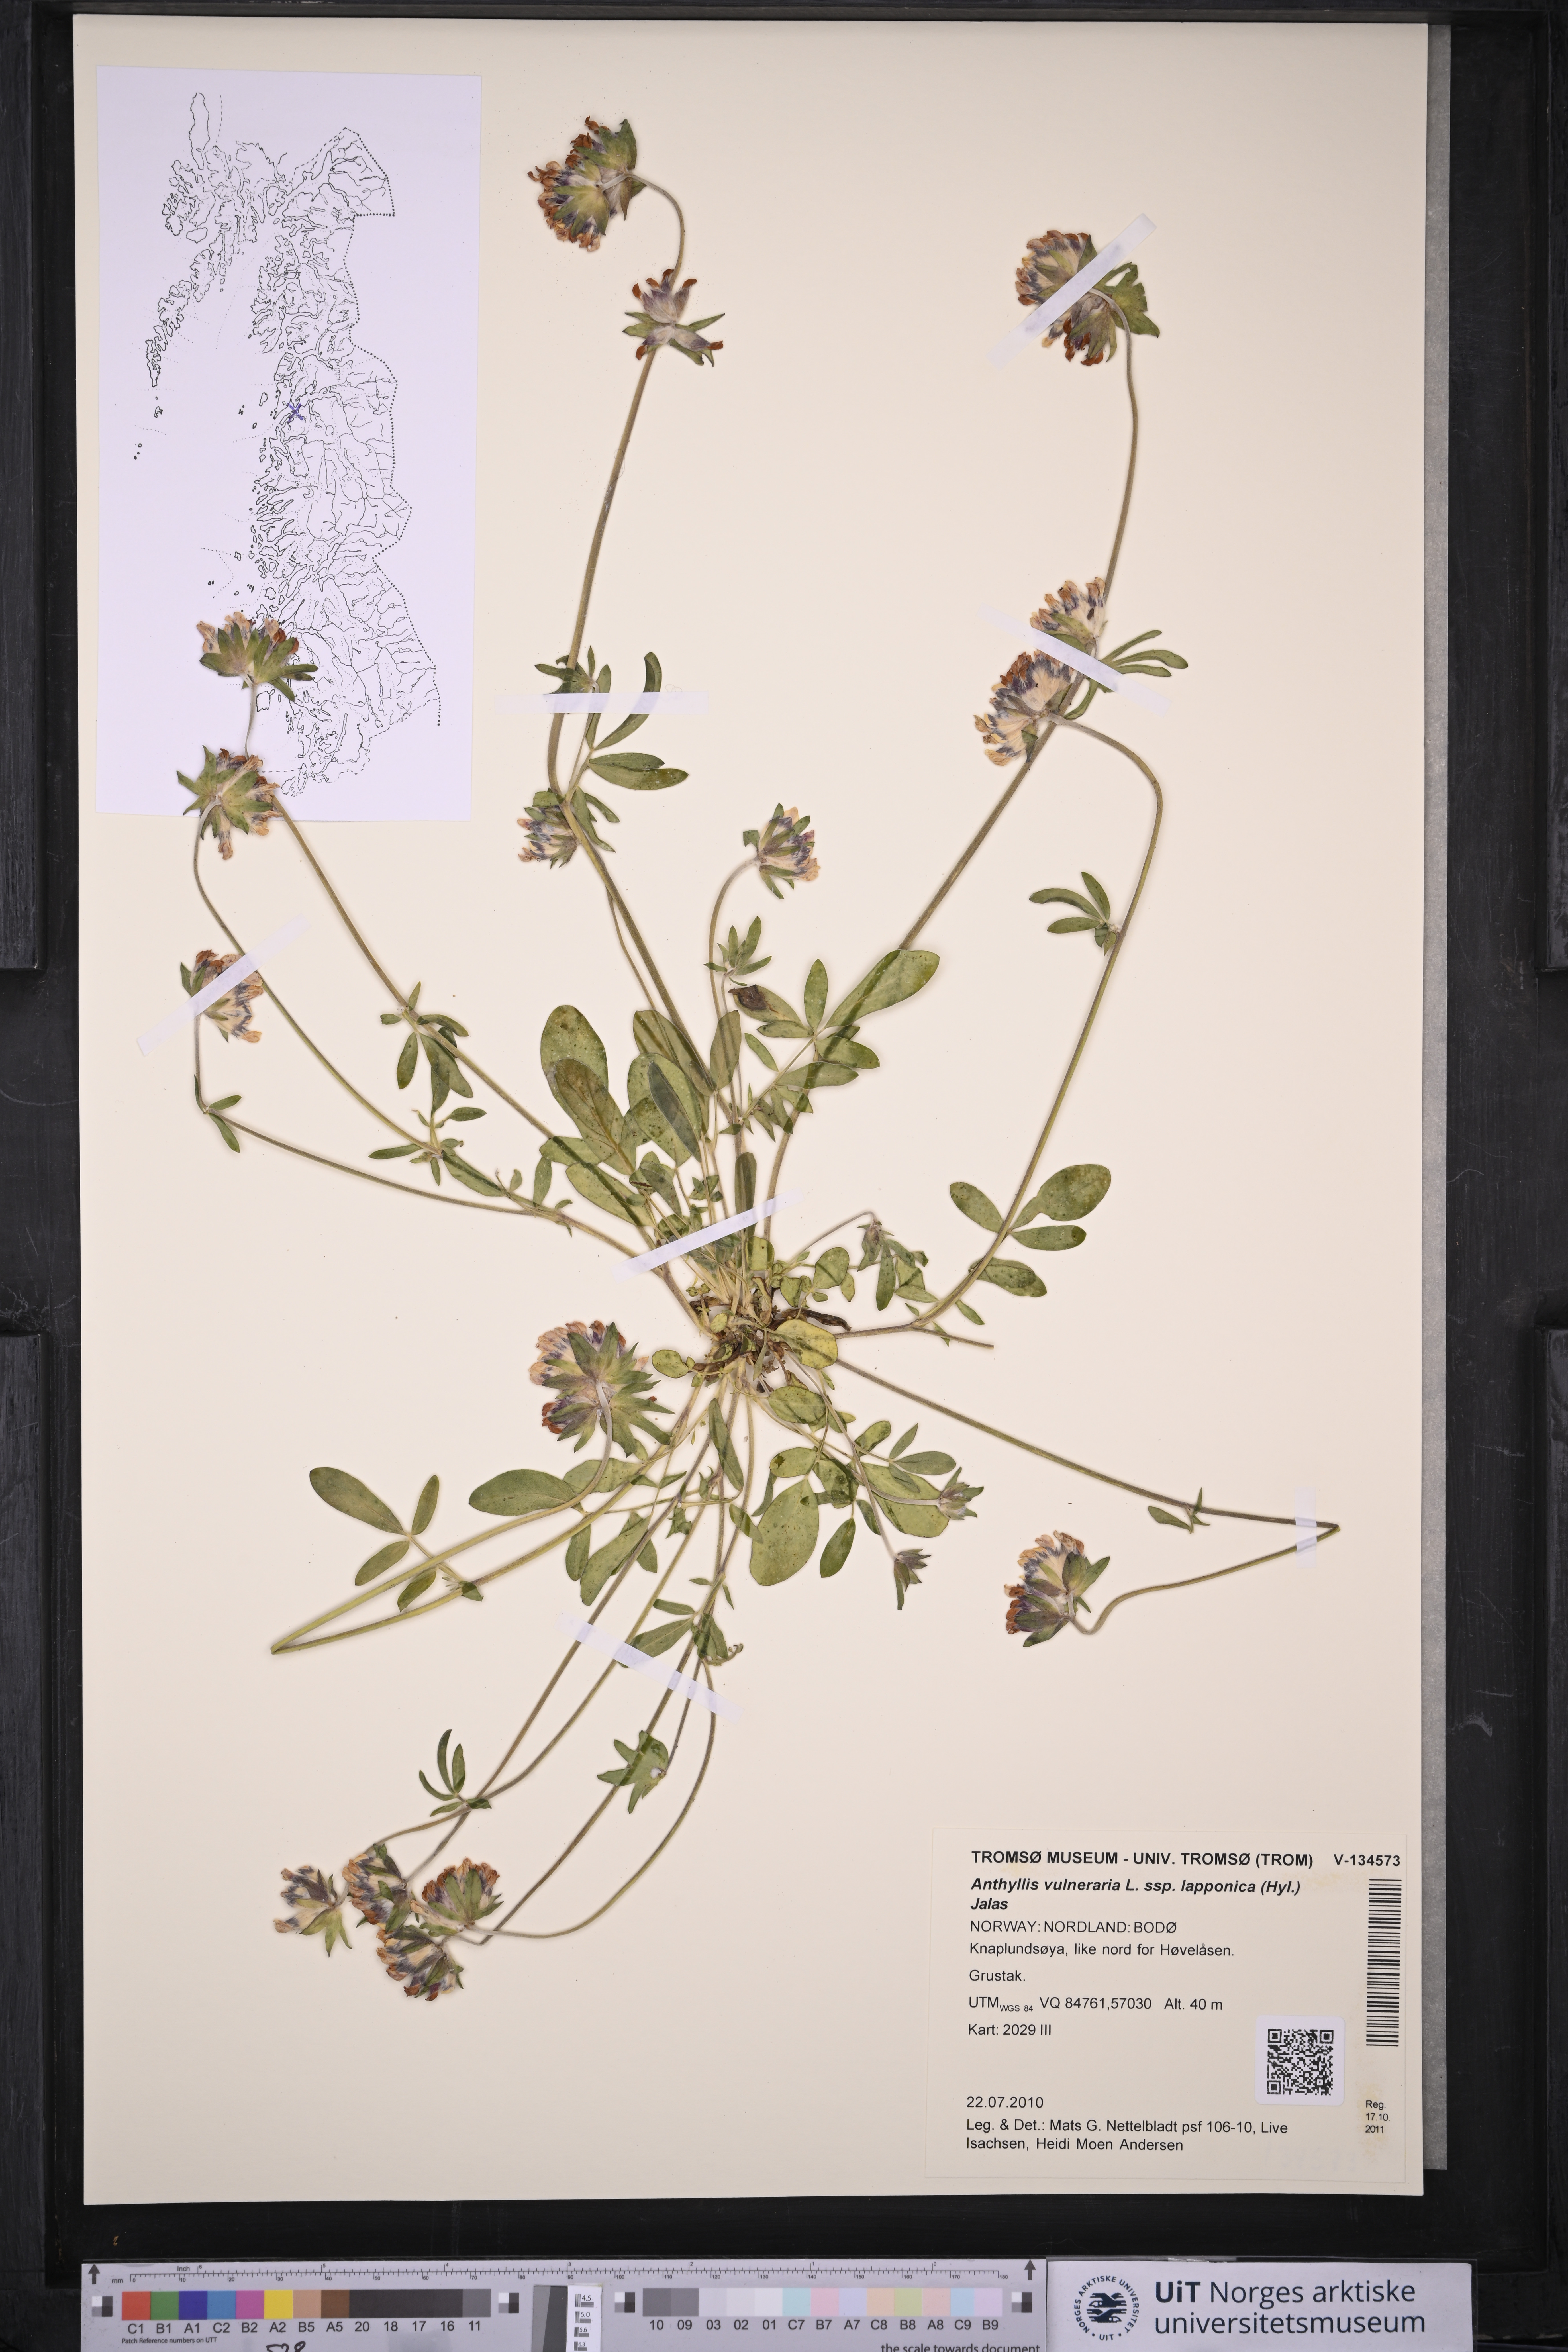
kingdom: Plantae
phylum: Tracheophyta
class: Magnoliopsida
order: Fabales
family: Fabaceae
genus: Anthyllis
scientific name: Anthyllis vulneraria
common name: Kidney vetch
